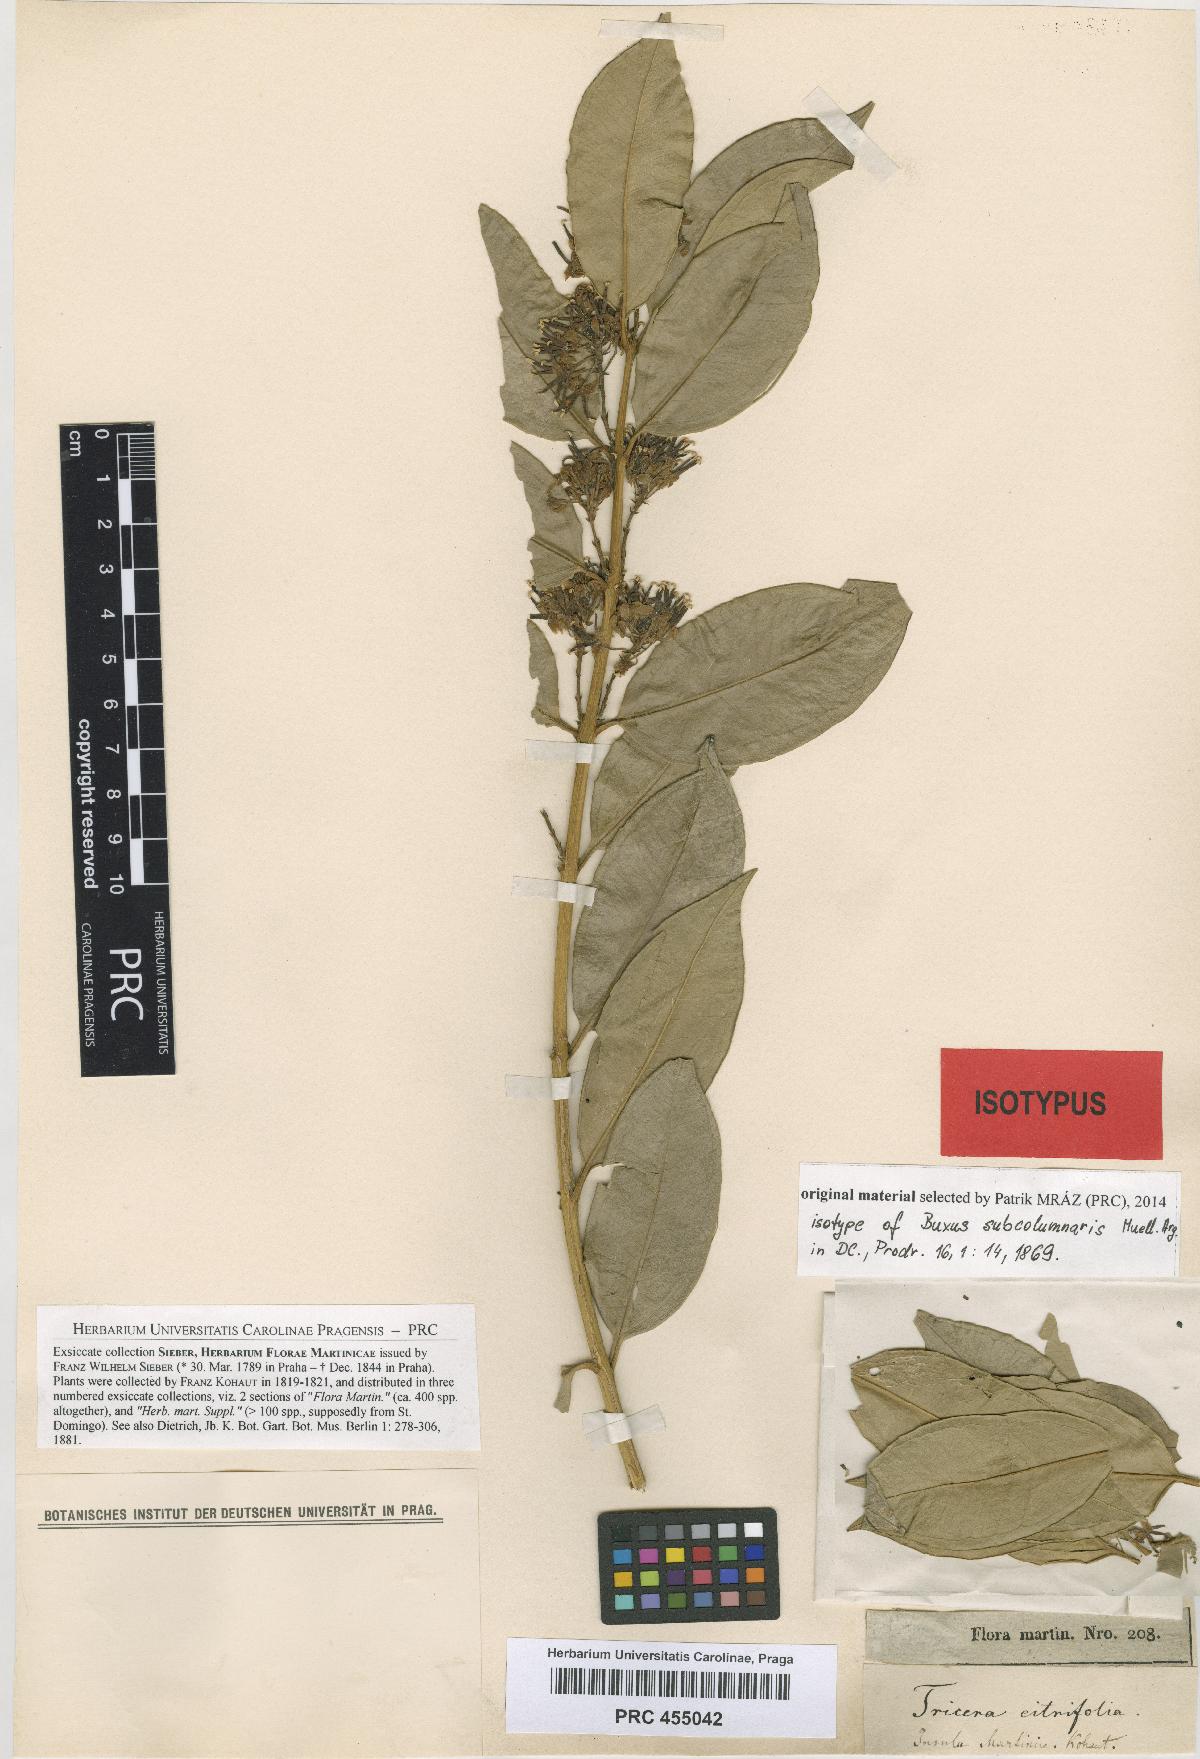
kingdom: Plantae
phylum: Tracheophyta
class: Magnoliopsida
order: Buxales
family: Buxaceae
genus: Buxus
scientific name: Buxus subcolumnaris
